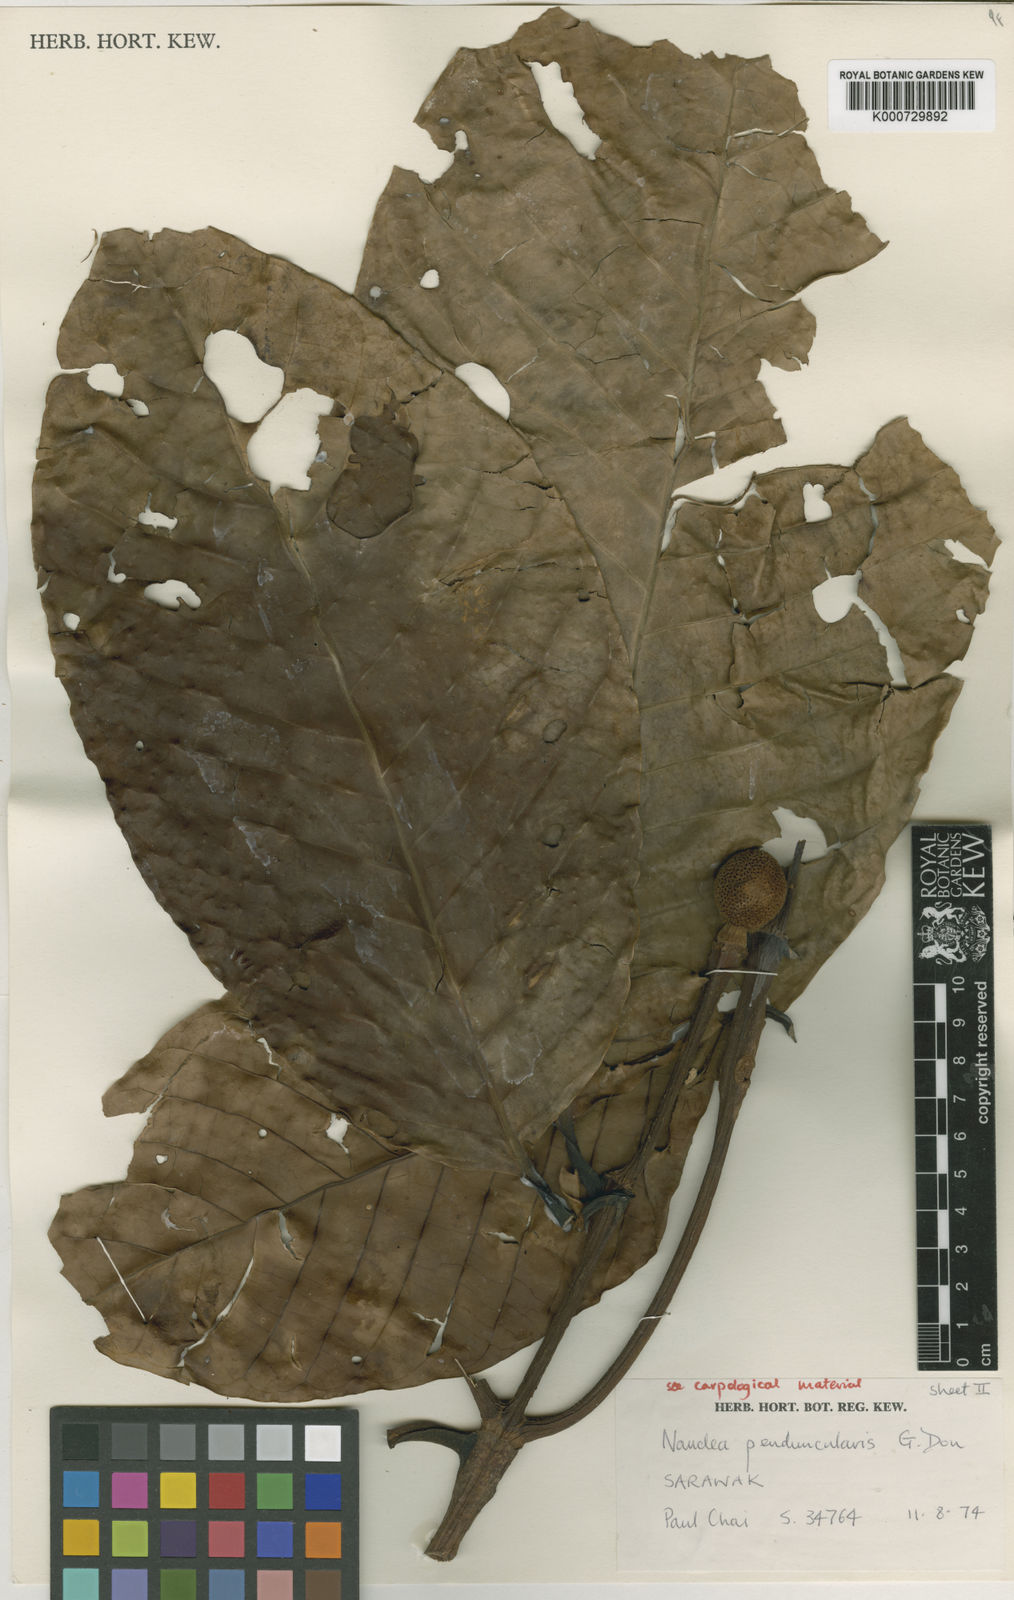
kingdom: Plantae
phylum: Tracheophyta
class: Magnoliopsida
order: Gentianales
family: Rubiaceae
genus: Neonauclea
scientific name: Neonauclea paracyrtopoda
